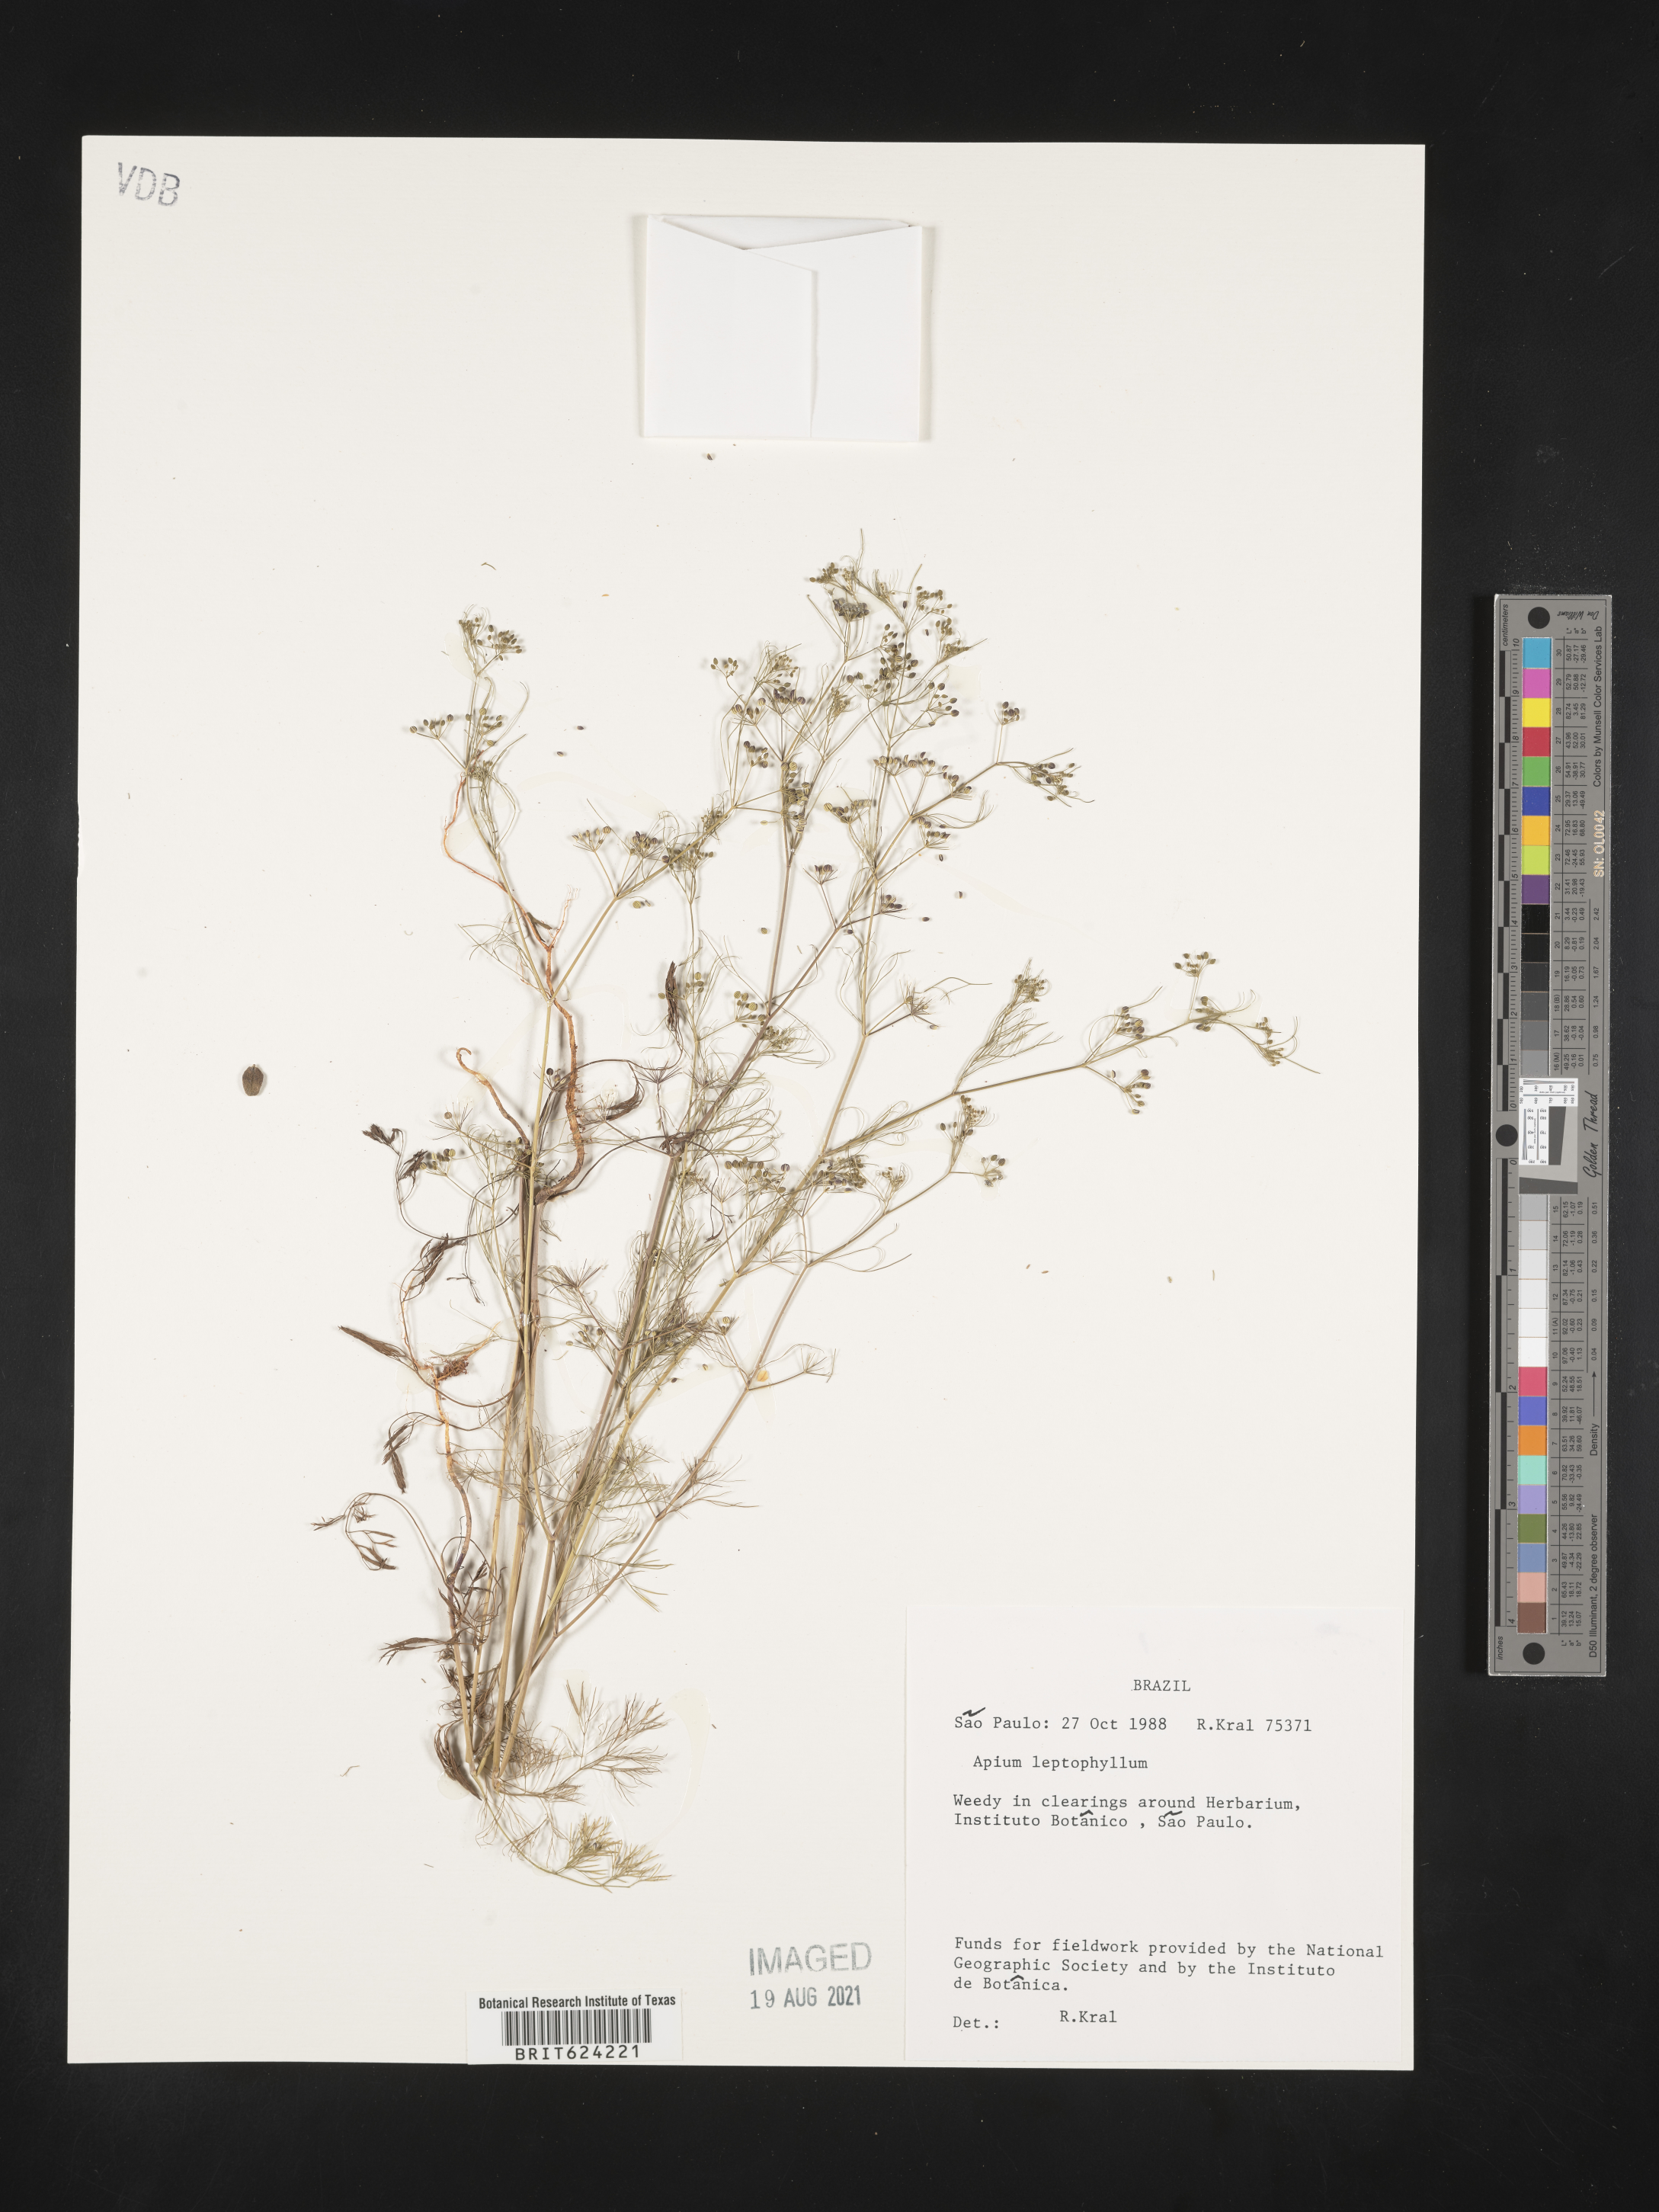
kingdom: Plantae
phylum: Tracheophyta
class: Magnoliopsida
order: Apiales
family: Apiaceae
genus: Cyclospermum
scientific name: Cyclospermum leptophyllum
